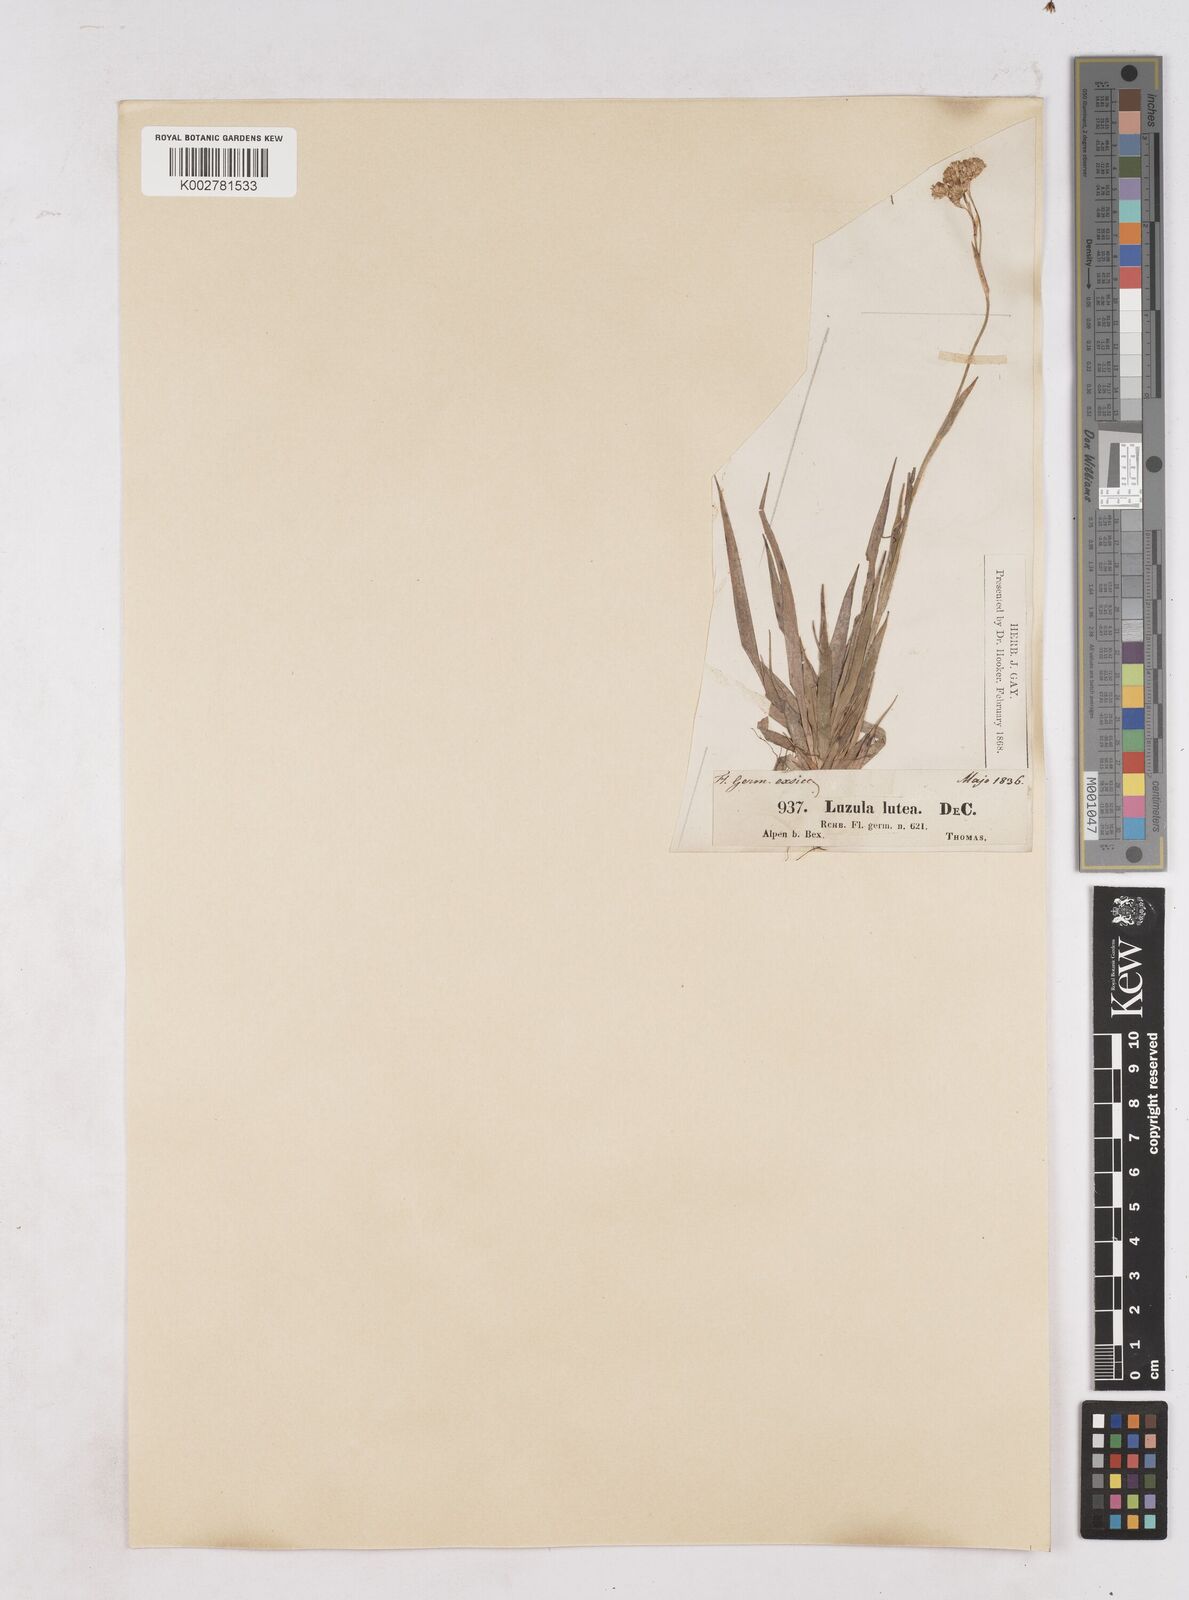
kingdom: Plantae
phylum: Tracheophyta
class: Liliopsida
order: Poales
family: Juncaceae
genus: Luzula
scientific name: Luzula lutea
